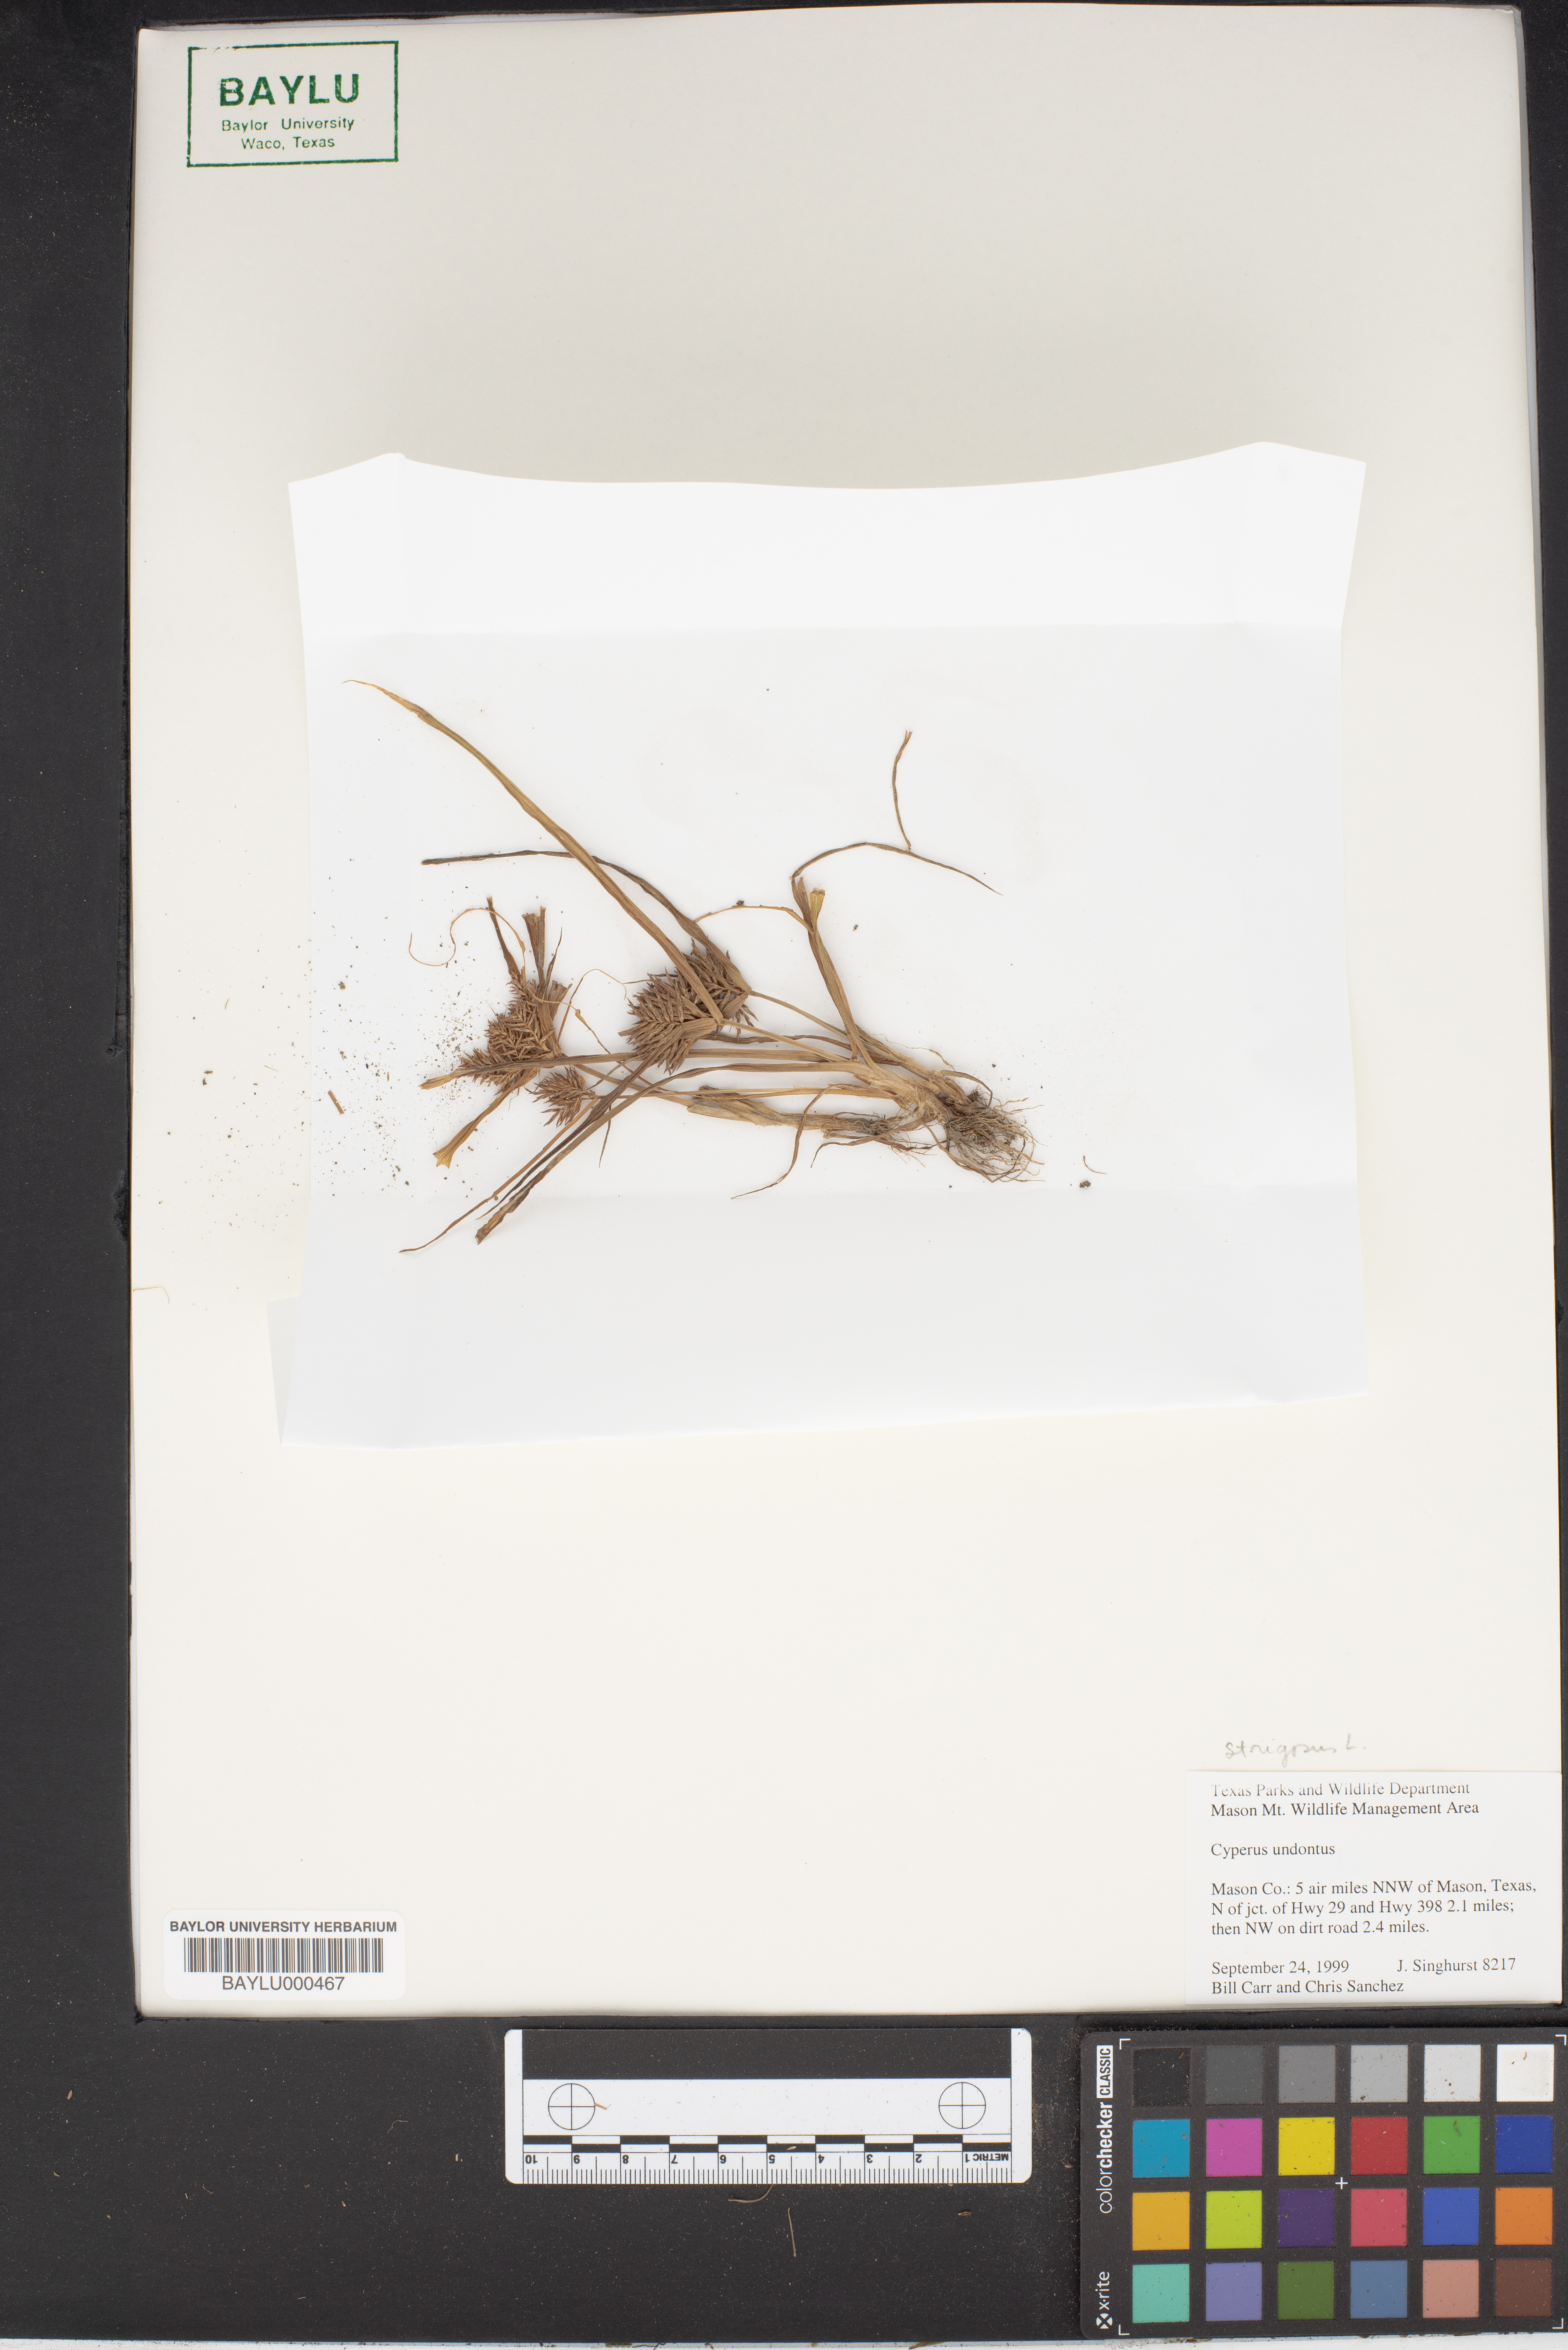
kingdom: Plantae
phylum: Tracheophyta
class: Liliopsida
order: Poales
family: Cyperaceae
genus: Cyperus
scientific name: Cyperus strigosus
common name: False nutsedge
